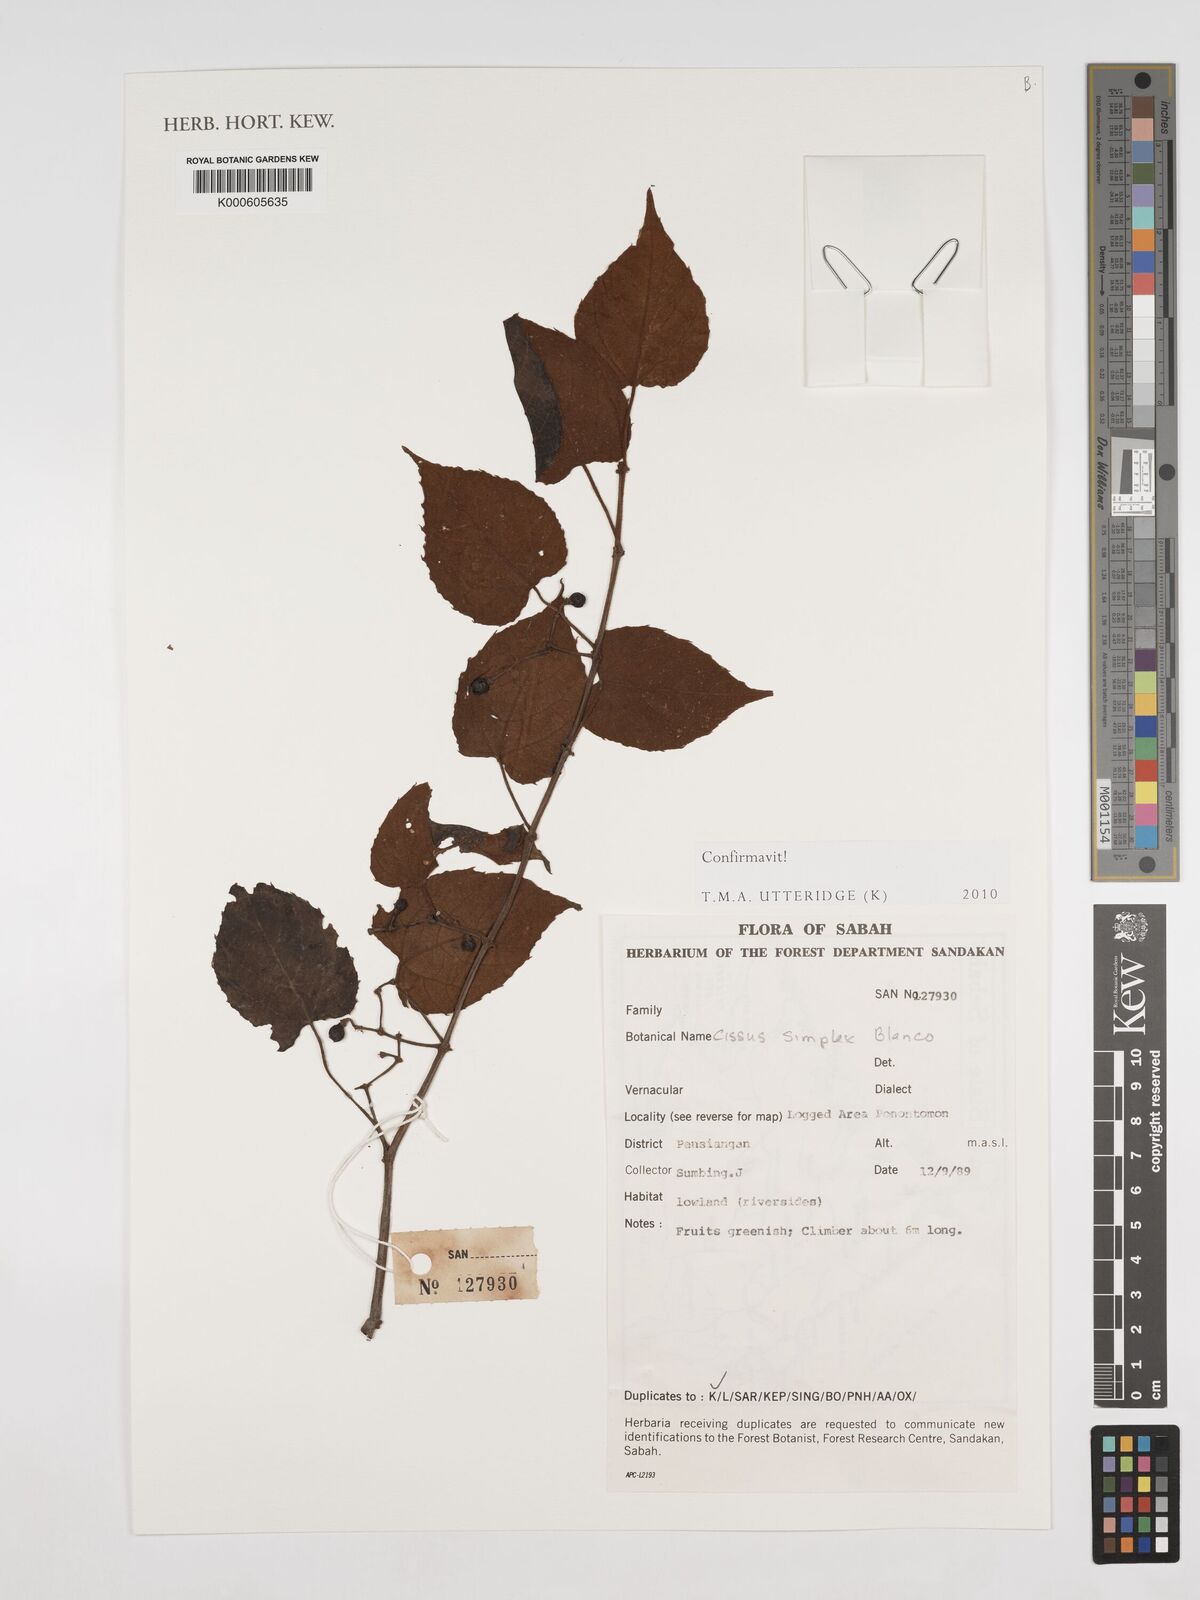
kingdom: Plantae
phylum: Tracheophyta
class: Magnoliopsida
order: Vitales
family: Vitaceae
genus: Cissus
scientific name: Cissus aristata
